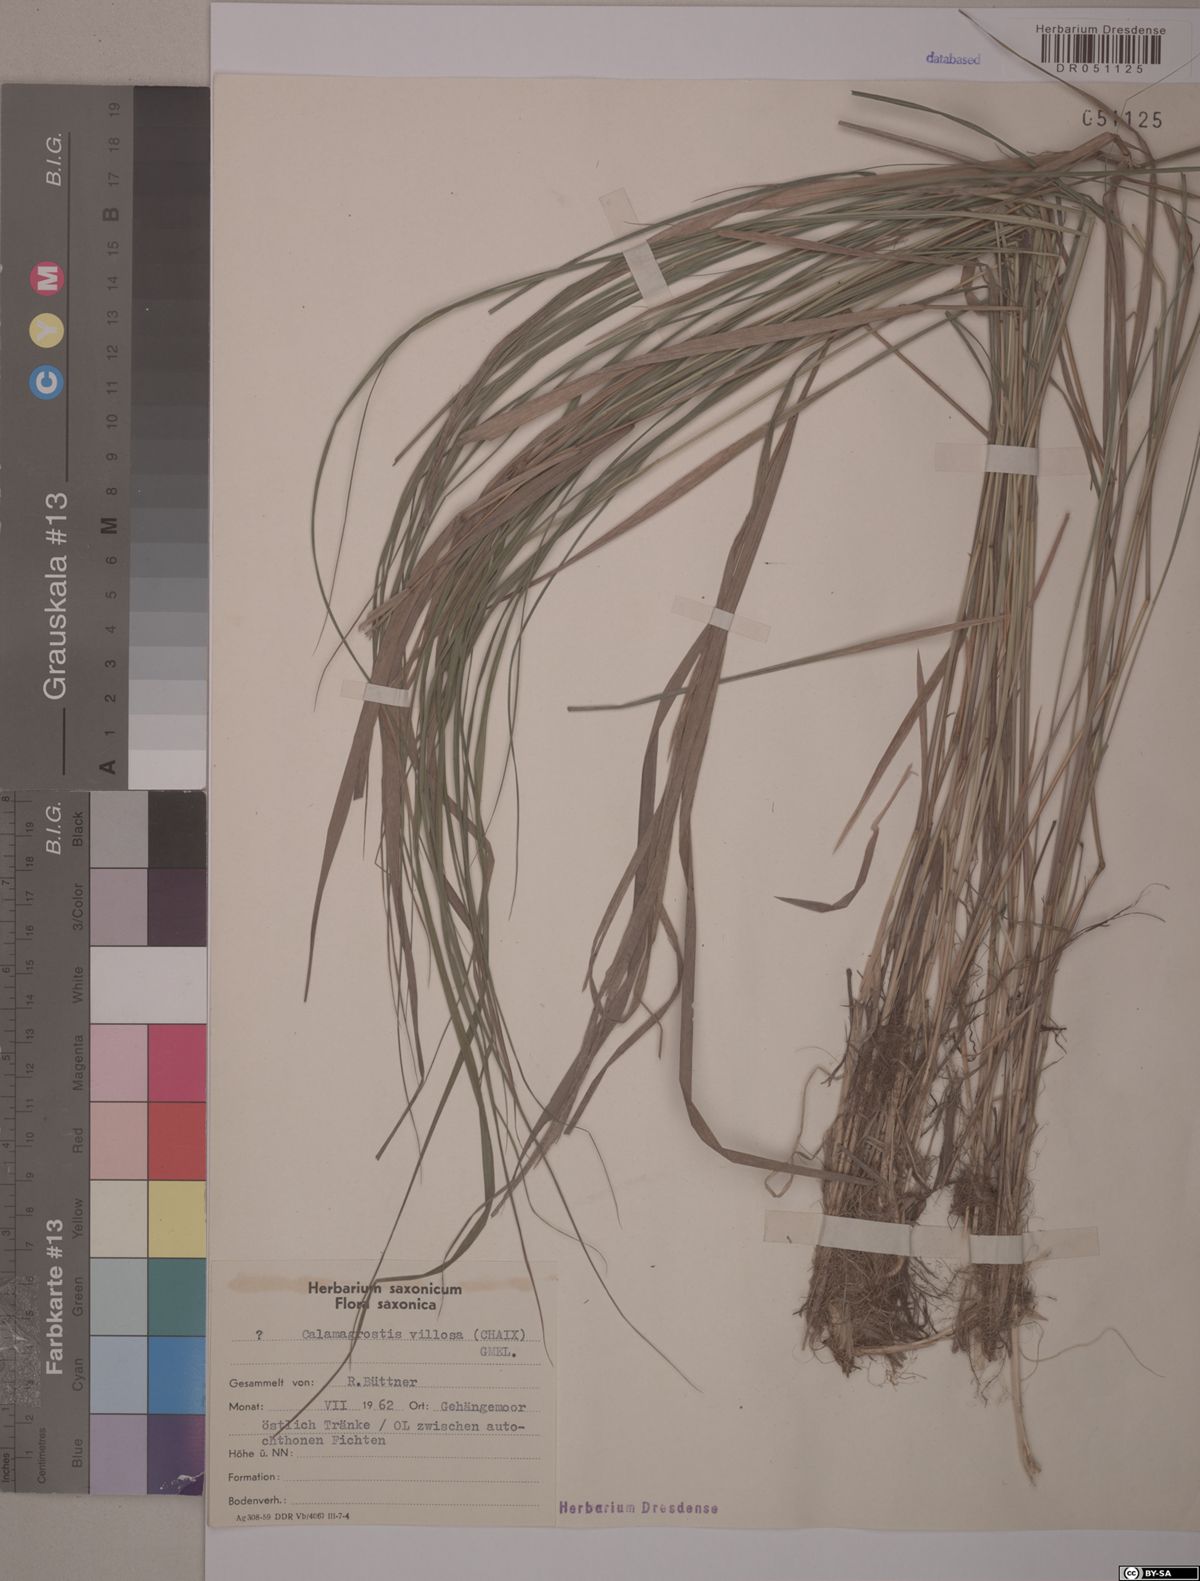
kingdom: Plantae
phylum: Tracheophyta
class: Liliopsida
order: Poales
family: Poaceae
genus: Calamagrostis
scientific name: Calamagrostis villosa
